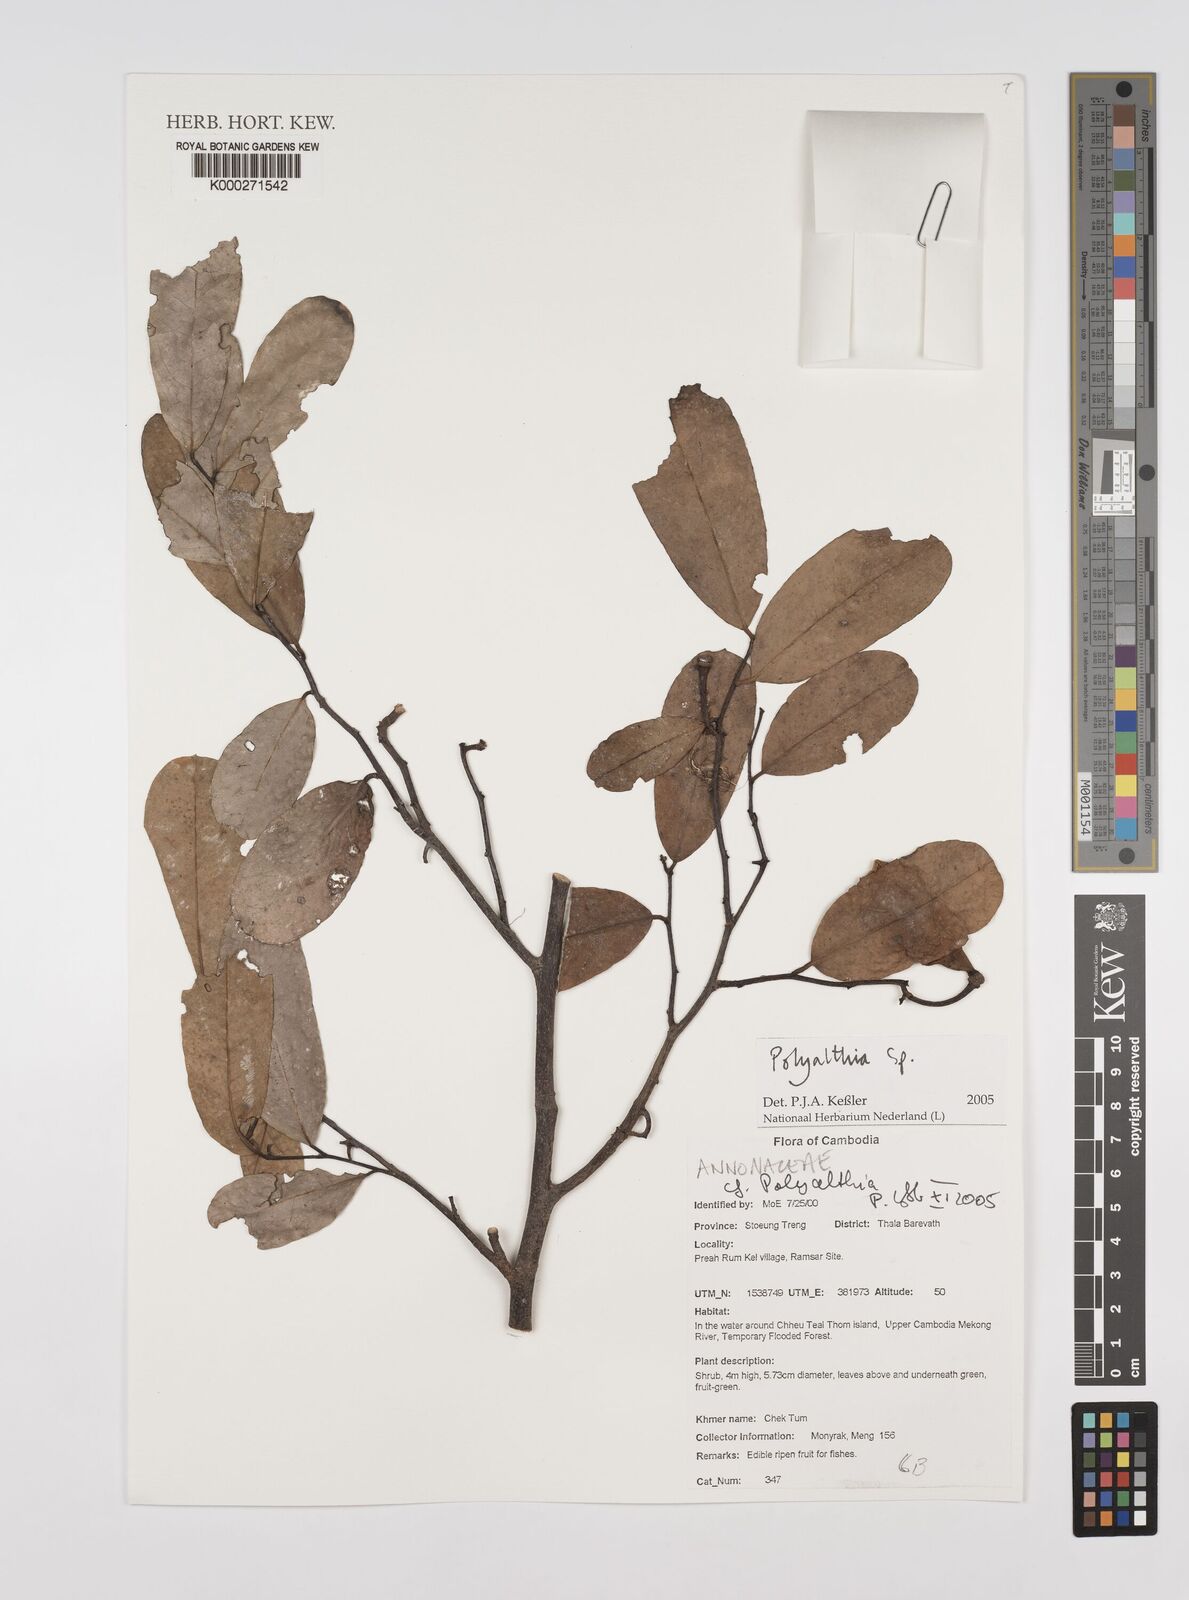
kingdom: Plantae
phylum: Tracheophyta
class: Magnoliopsida
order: Magnoliales
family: Annonaceae
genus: Polyalthia
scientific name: Polyalthia
